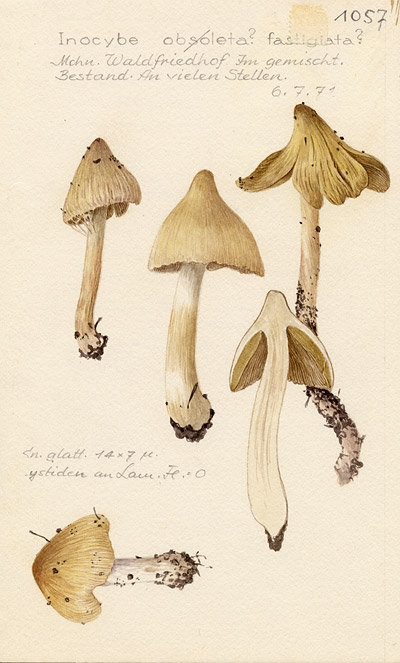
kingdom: Fungi
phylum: Basidiomycota
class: Agaricomycetes
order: Agaricales
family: Inocybaceae
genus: Pseudosperma
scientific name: Pseudosperma rimosum
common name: Split fibrecap
